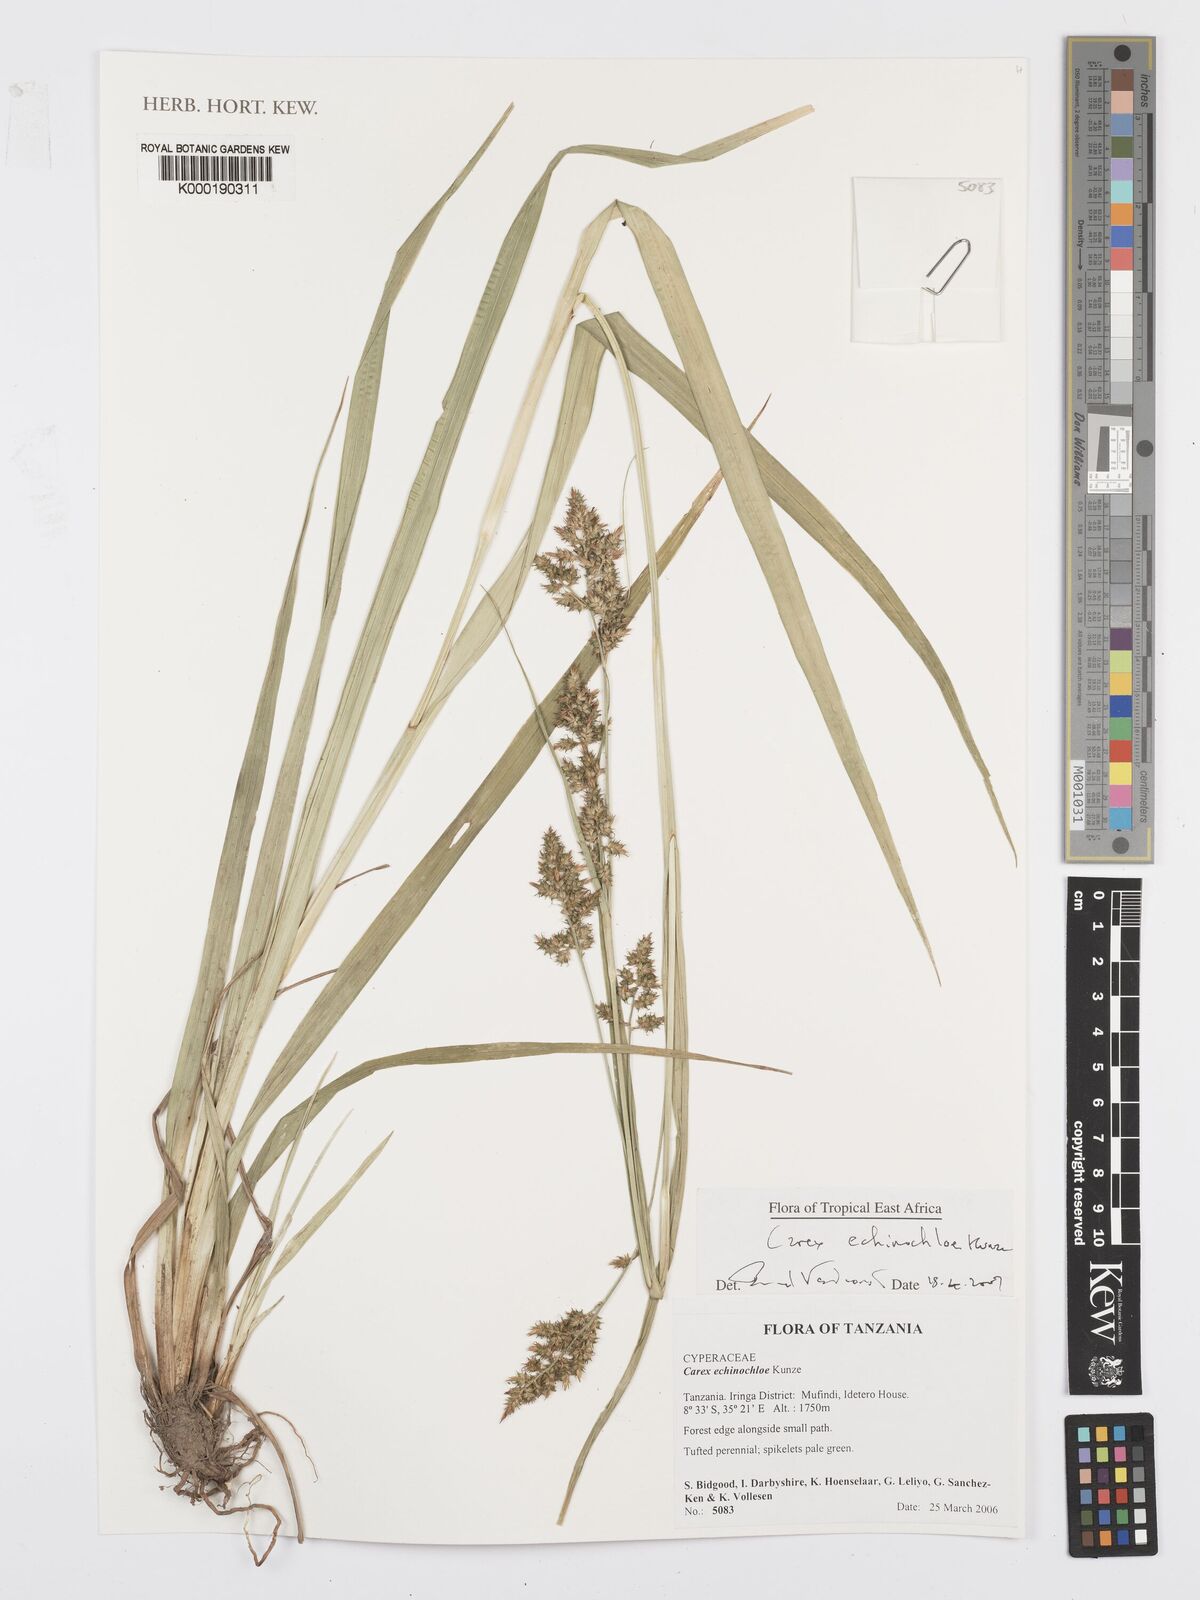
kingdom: Plantae
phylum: Tracheophyta
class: Liliopsida
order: Poales
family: Cyperaceae
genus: Carex
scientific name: Carex echinochloe
